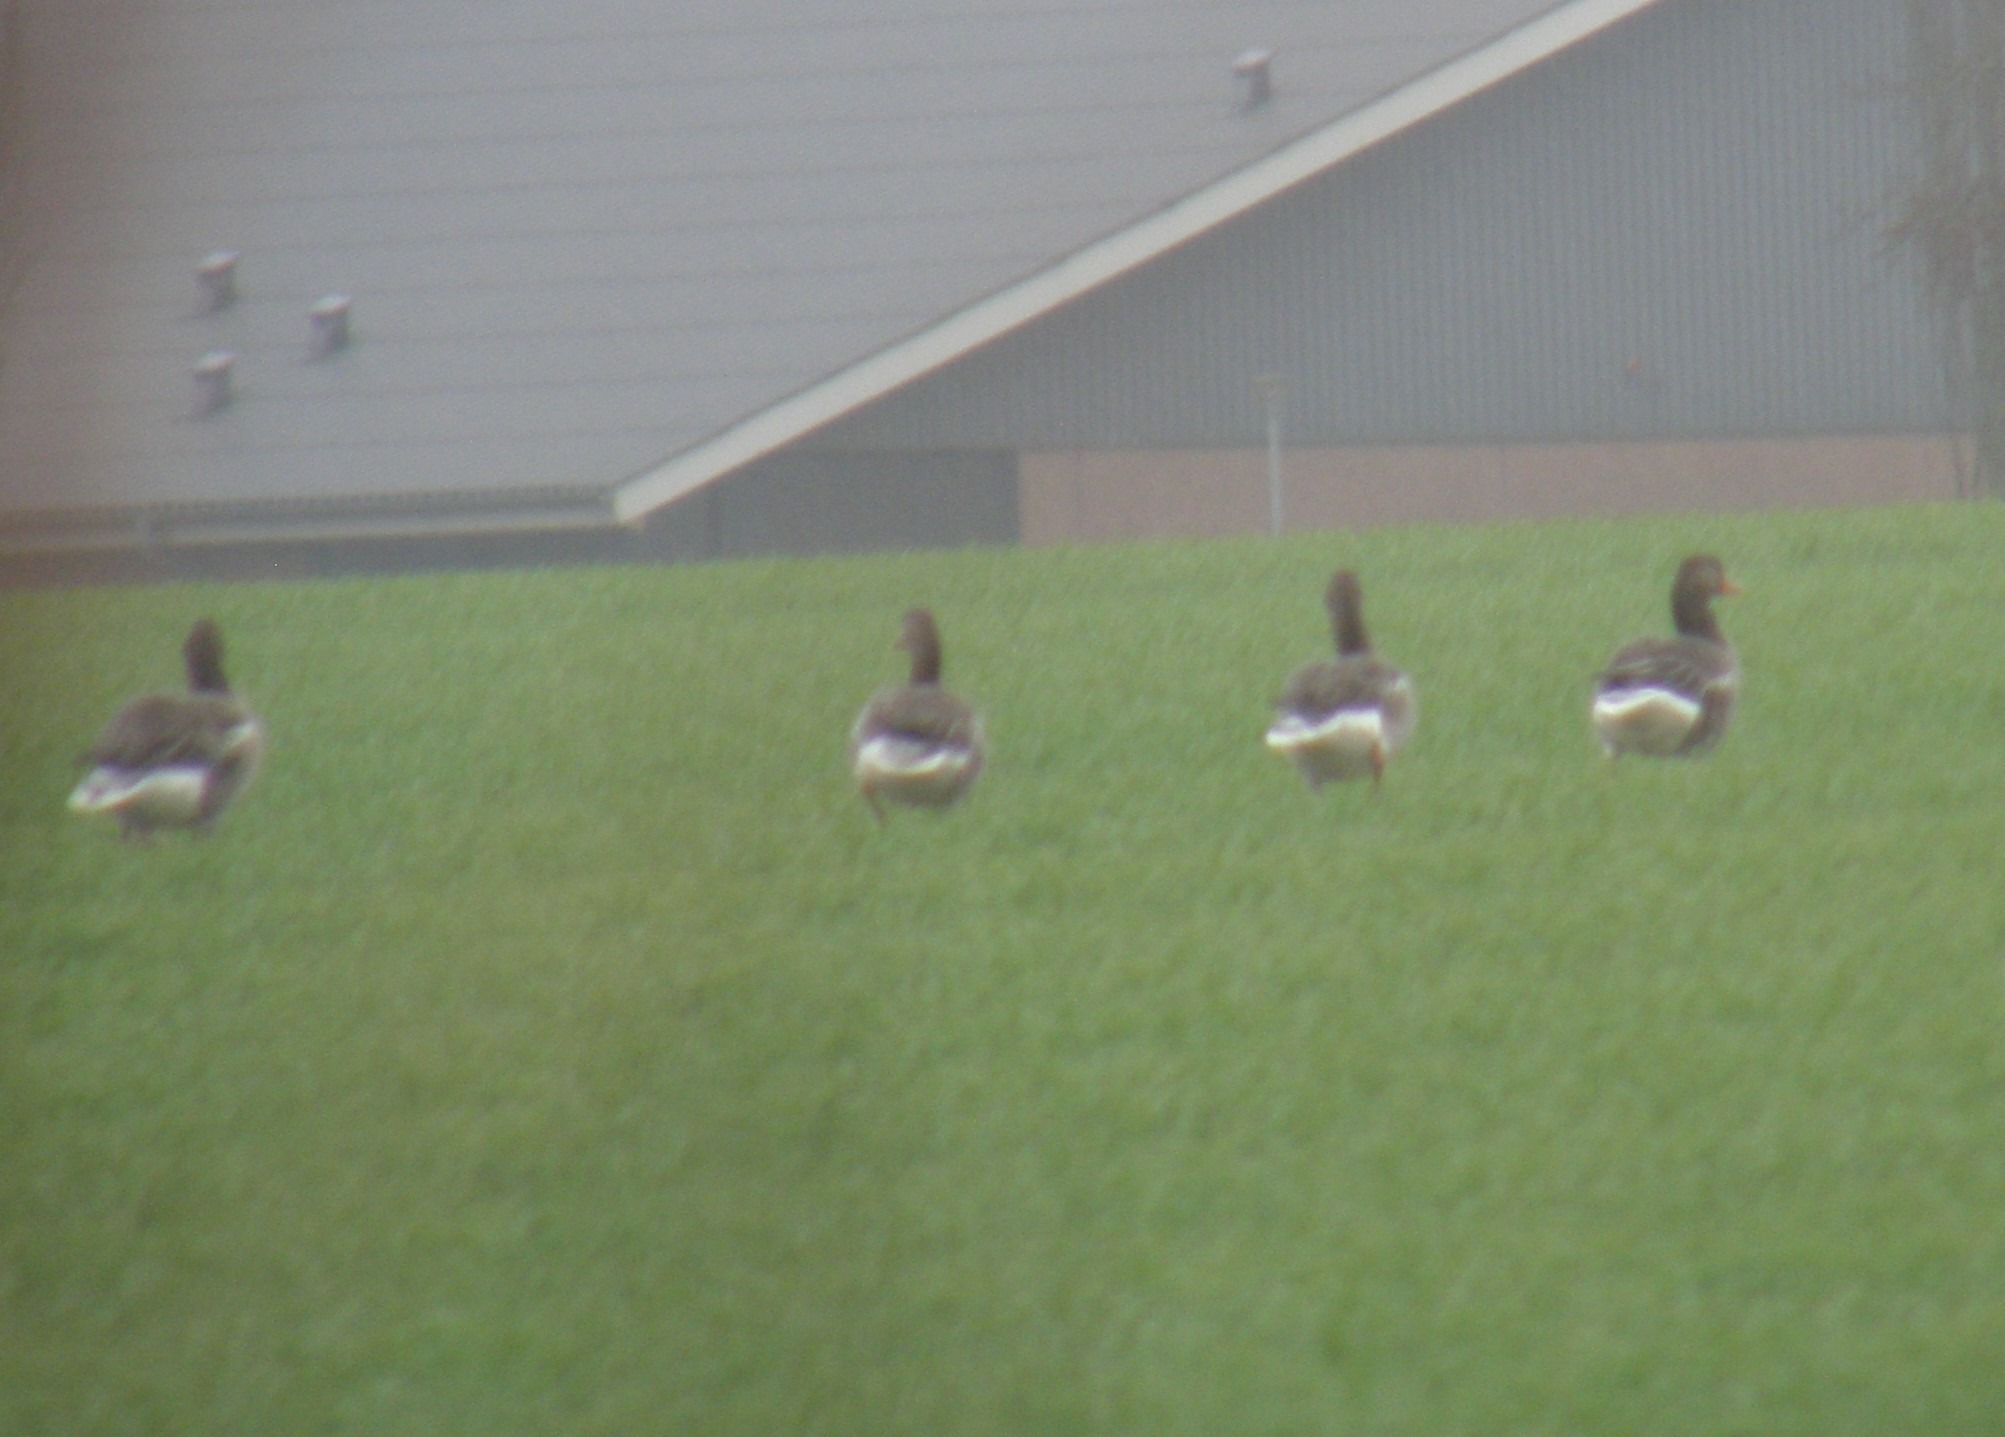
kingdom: Animalia
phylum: Chordata
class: Aves
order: Anseriformes
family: Anatidae
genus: Anser
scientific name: Anser anser
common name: Grågås
